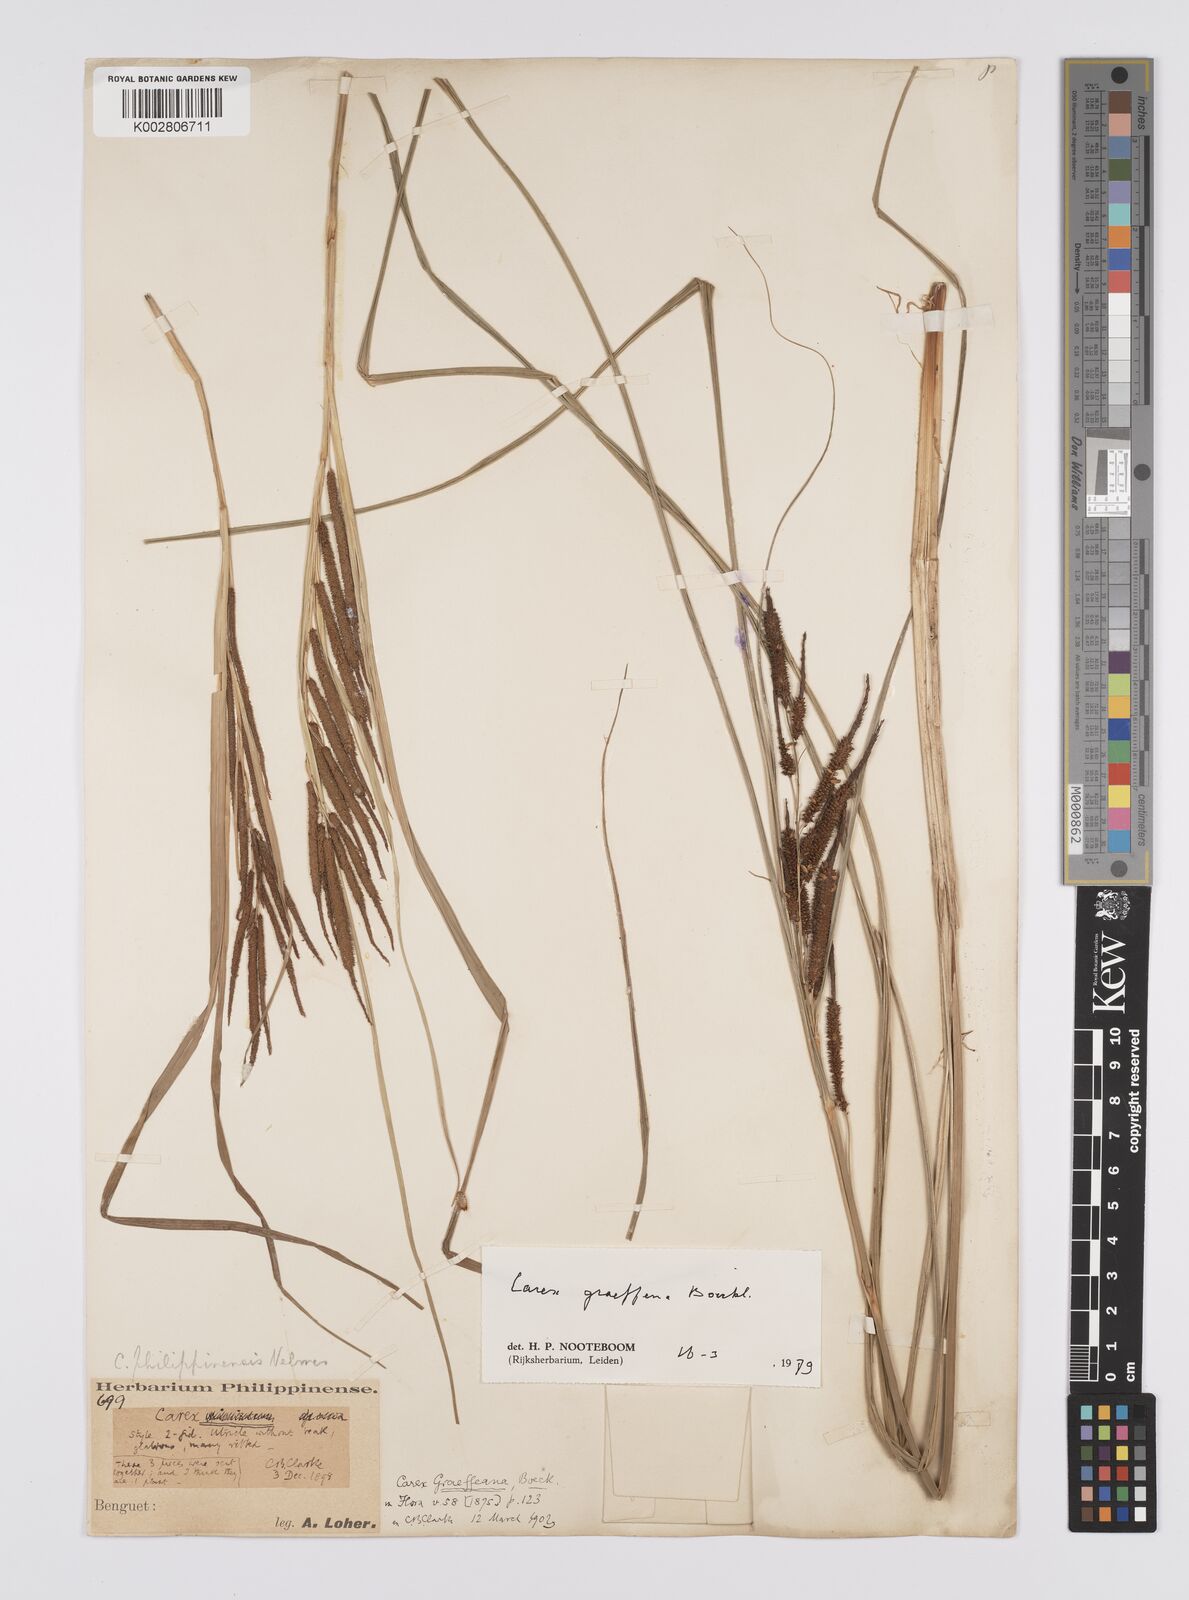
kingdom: Plantae
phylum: Tracheophyta
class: Liliopsida
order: Poales
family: Cyperaceae
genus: Carex
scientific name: Carex graeffeana
